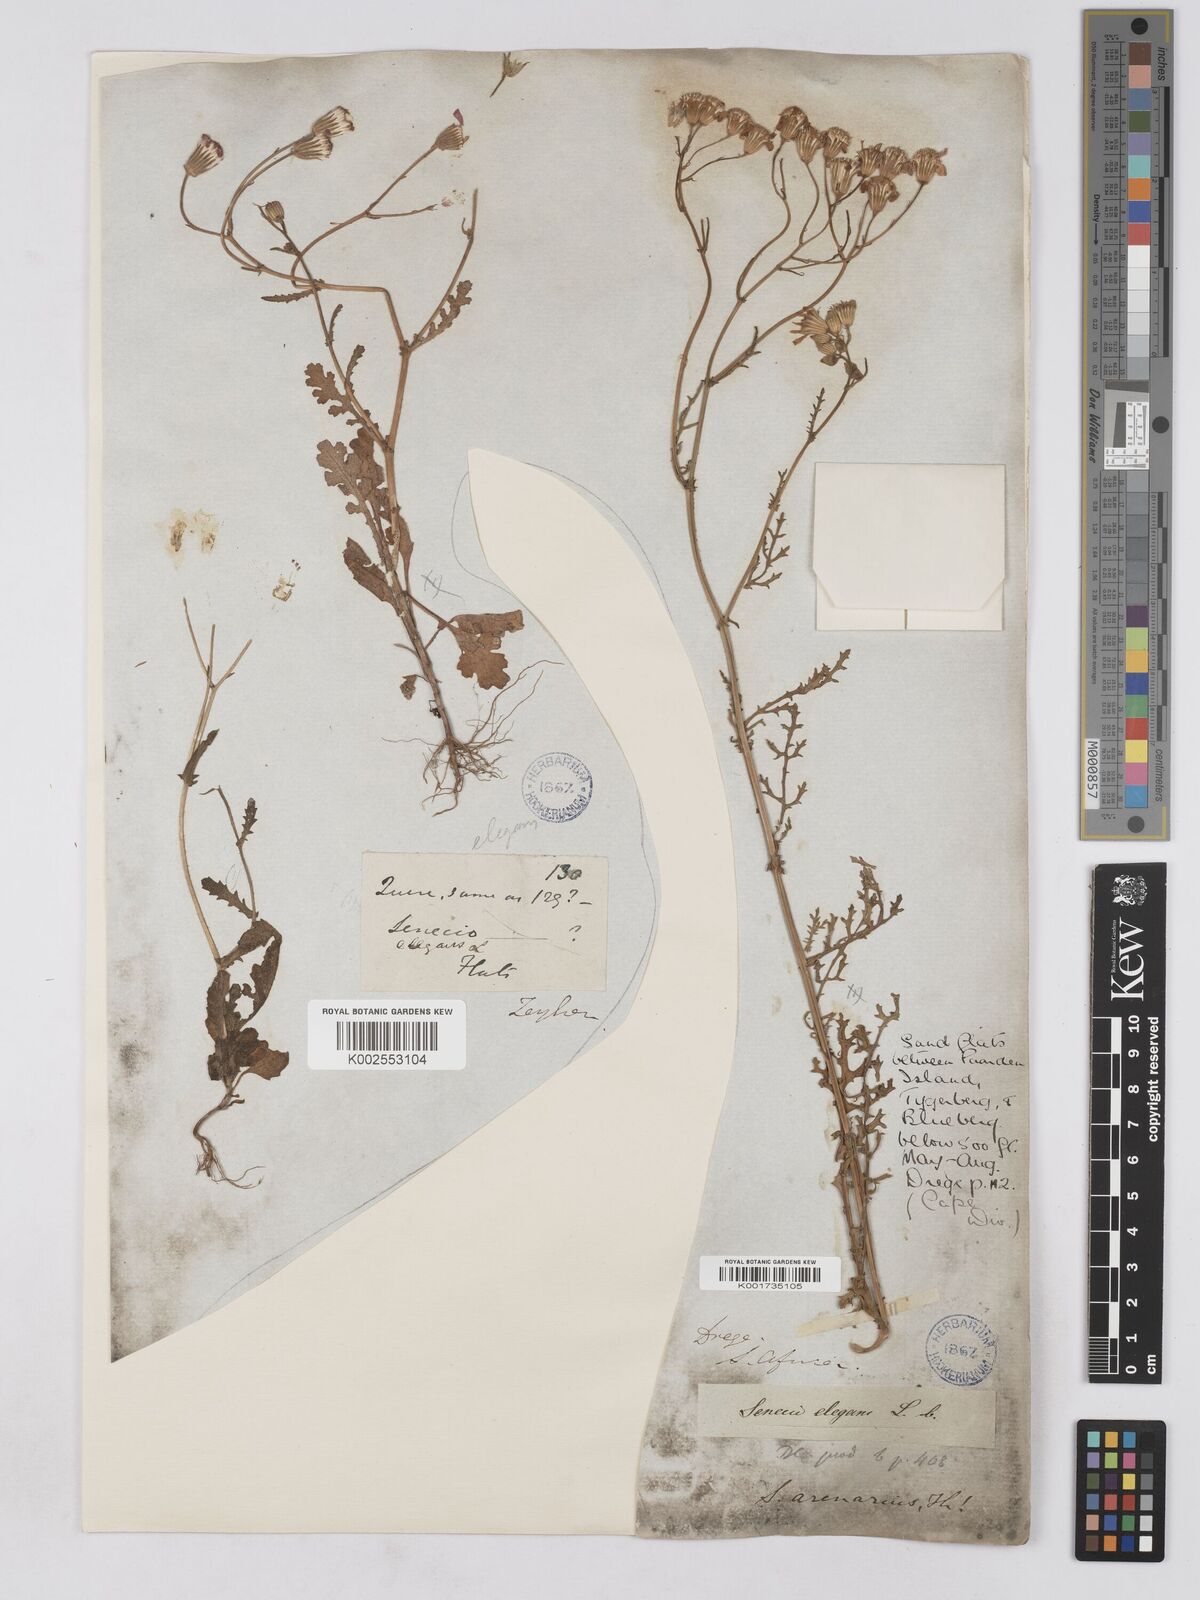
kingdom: Plantae
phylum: Tracheophyta
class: Magnoliopsida
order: Asterales
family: Asteraceae
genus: Senecio
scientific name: Senecio arenarius
